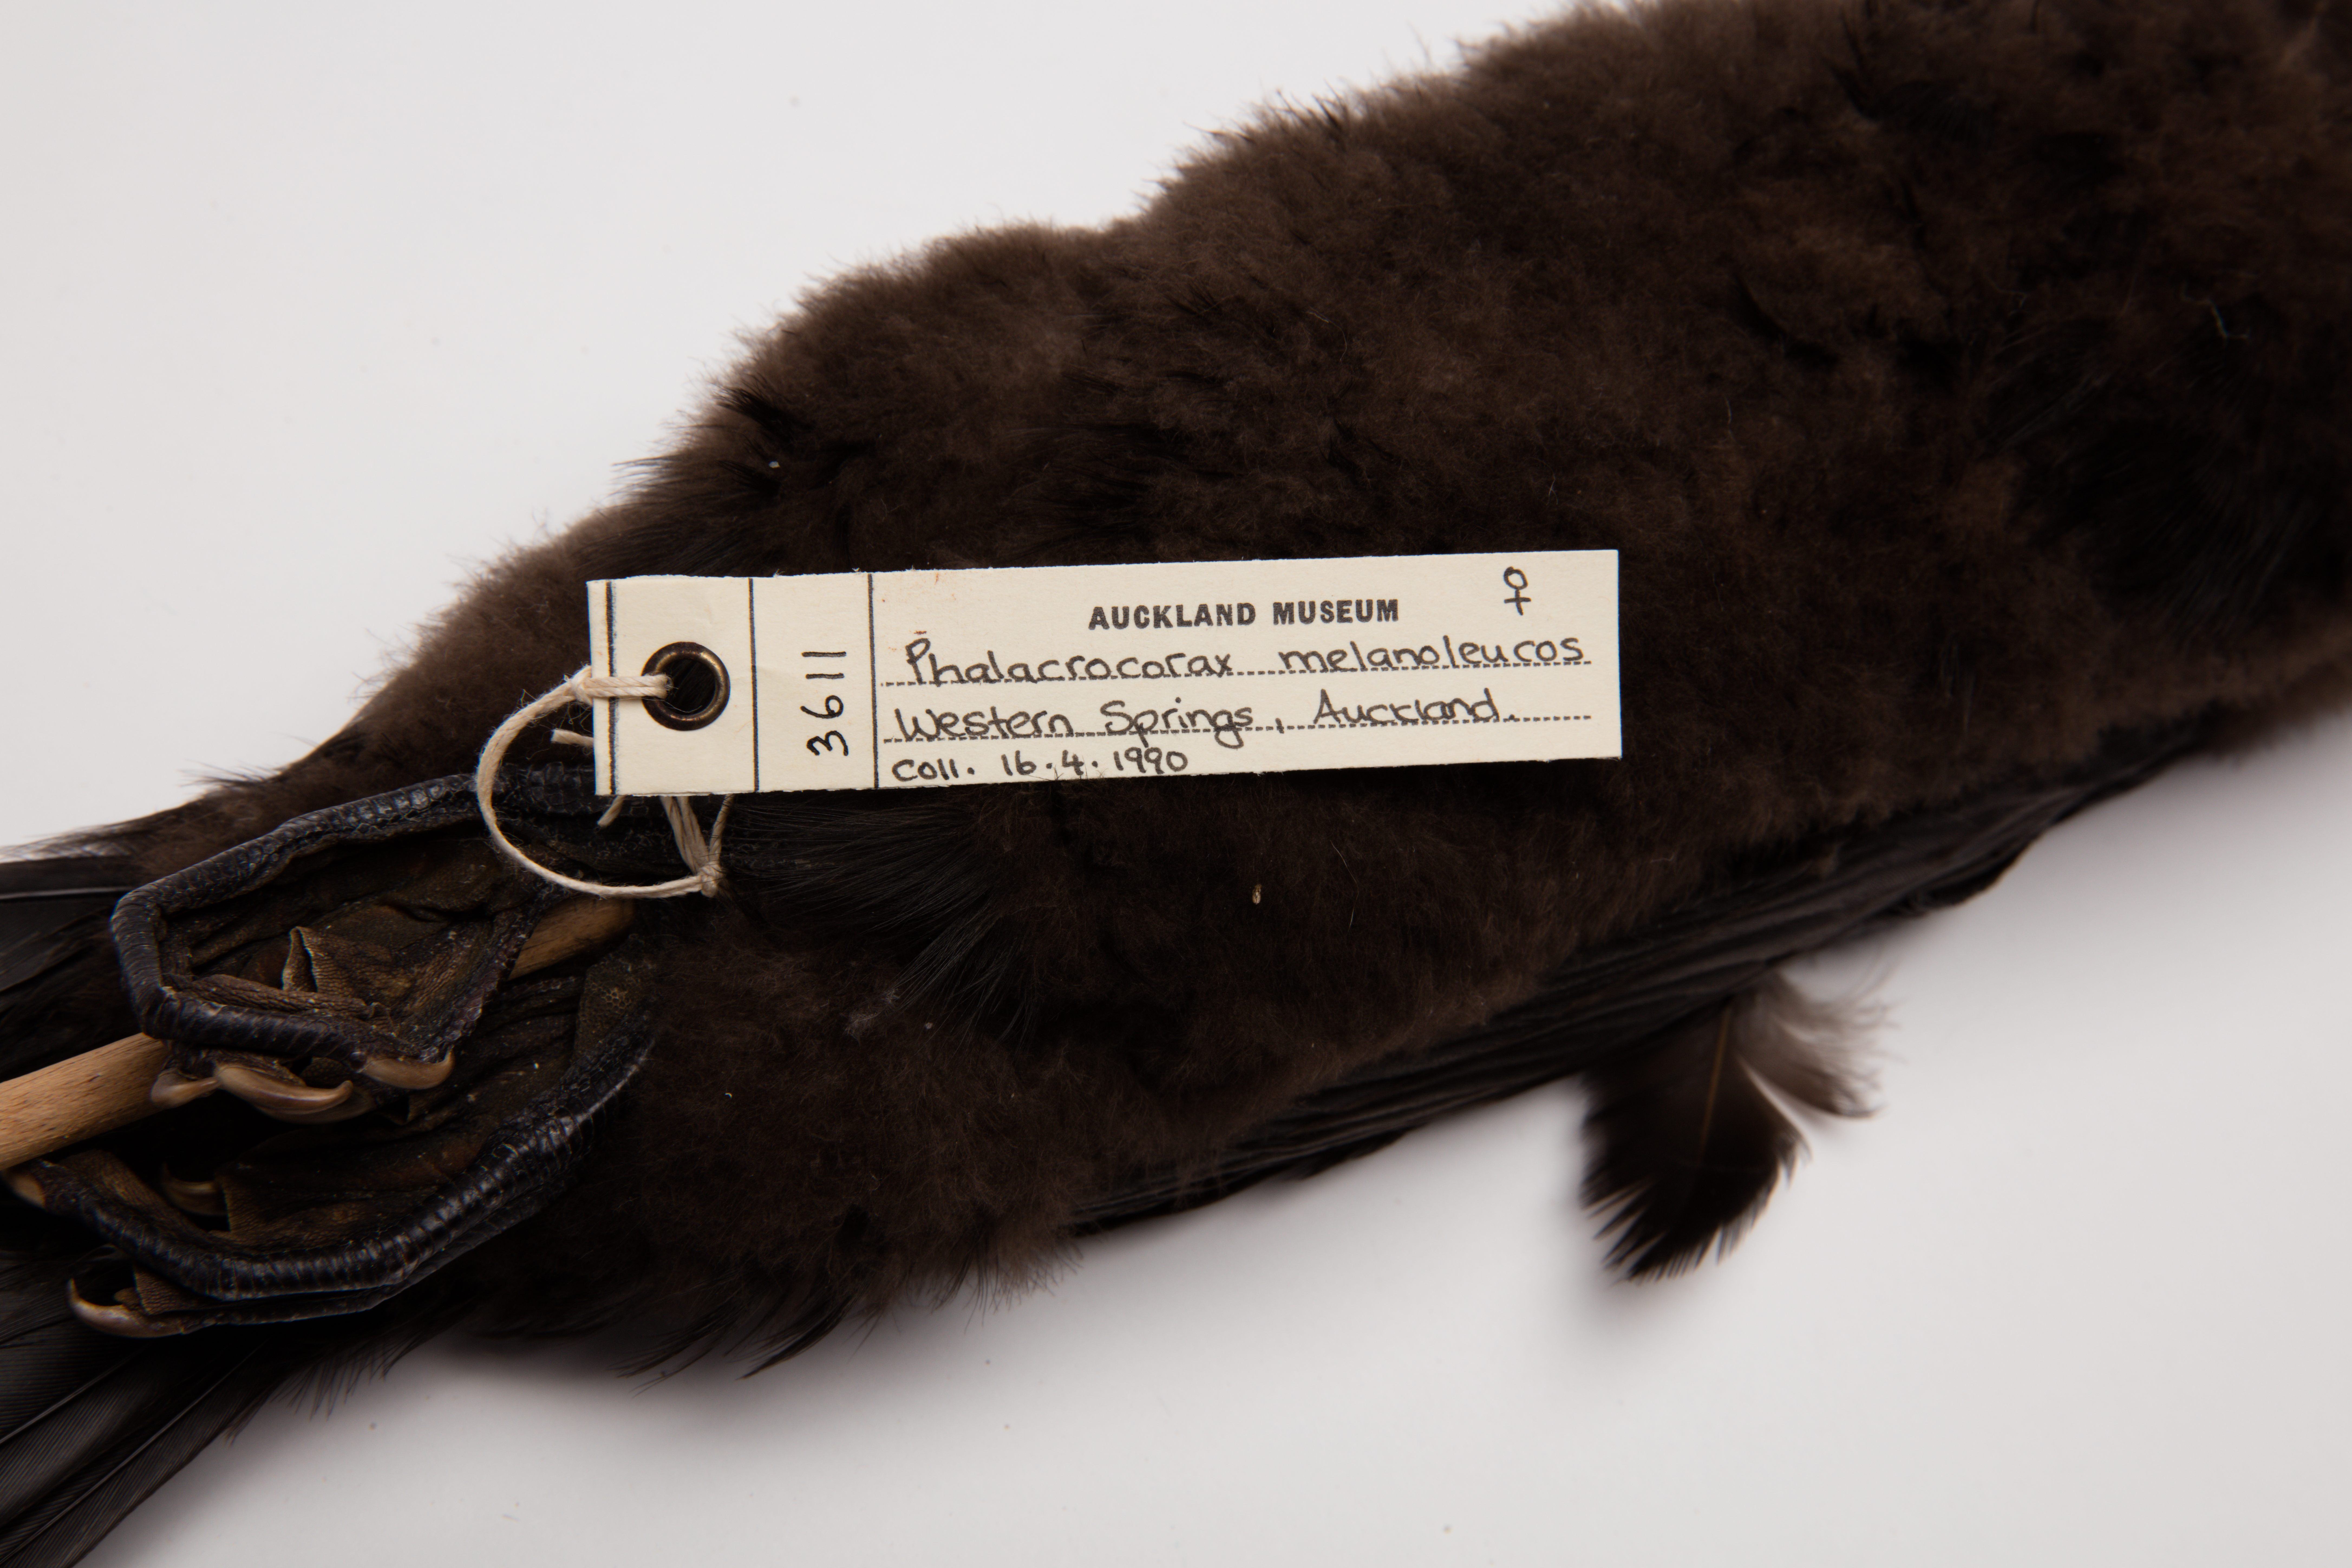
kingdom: Animalia
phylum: Chordata
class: Aves
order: Suliformes
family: Phalacrocoracidae
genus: Microcarbo
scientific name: Microcarbo melanoleucos
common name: Little pied cormorant
